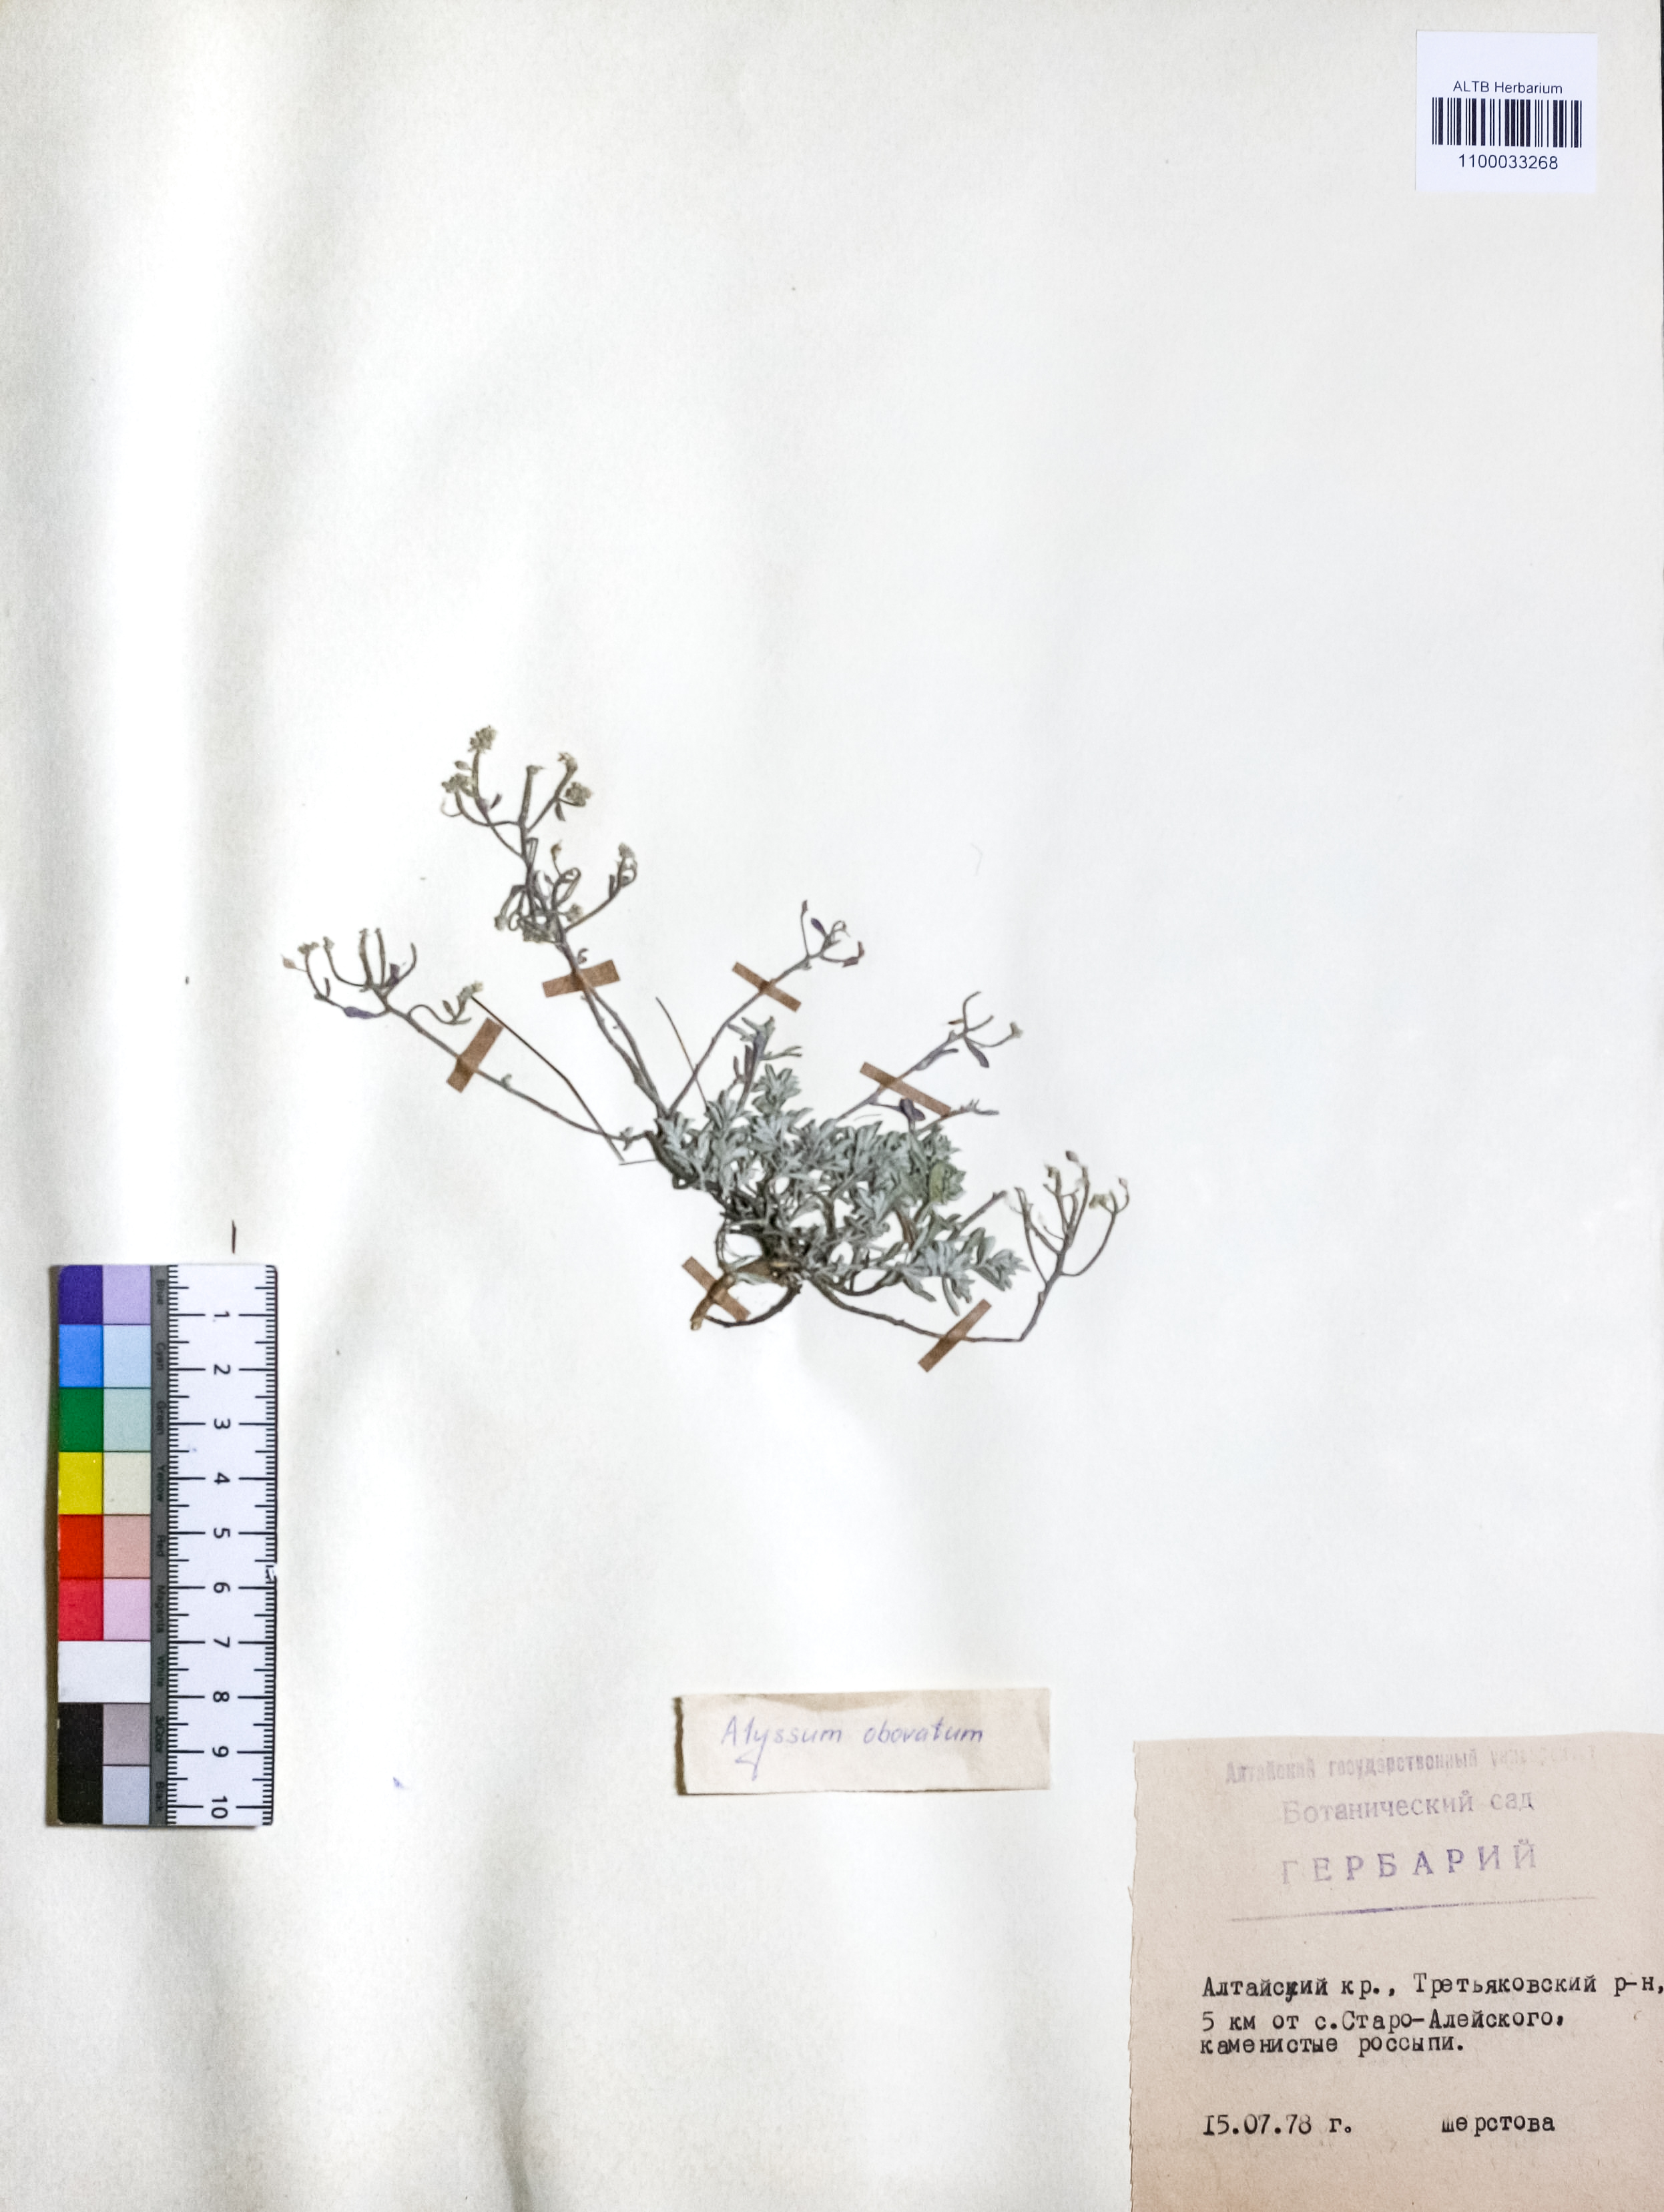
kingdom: Plantae
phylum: Tracheophyta
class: Magnoliopsida
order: Brassicales
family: Brassicaceae
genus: Odontarrhena
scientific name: Odontarrhena obovata
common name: American alyssum
